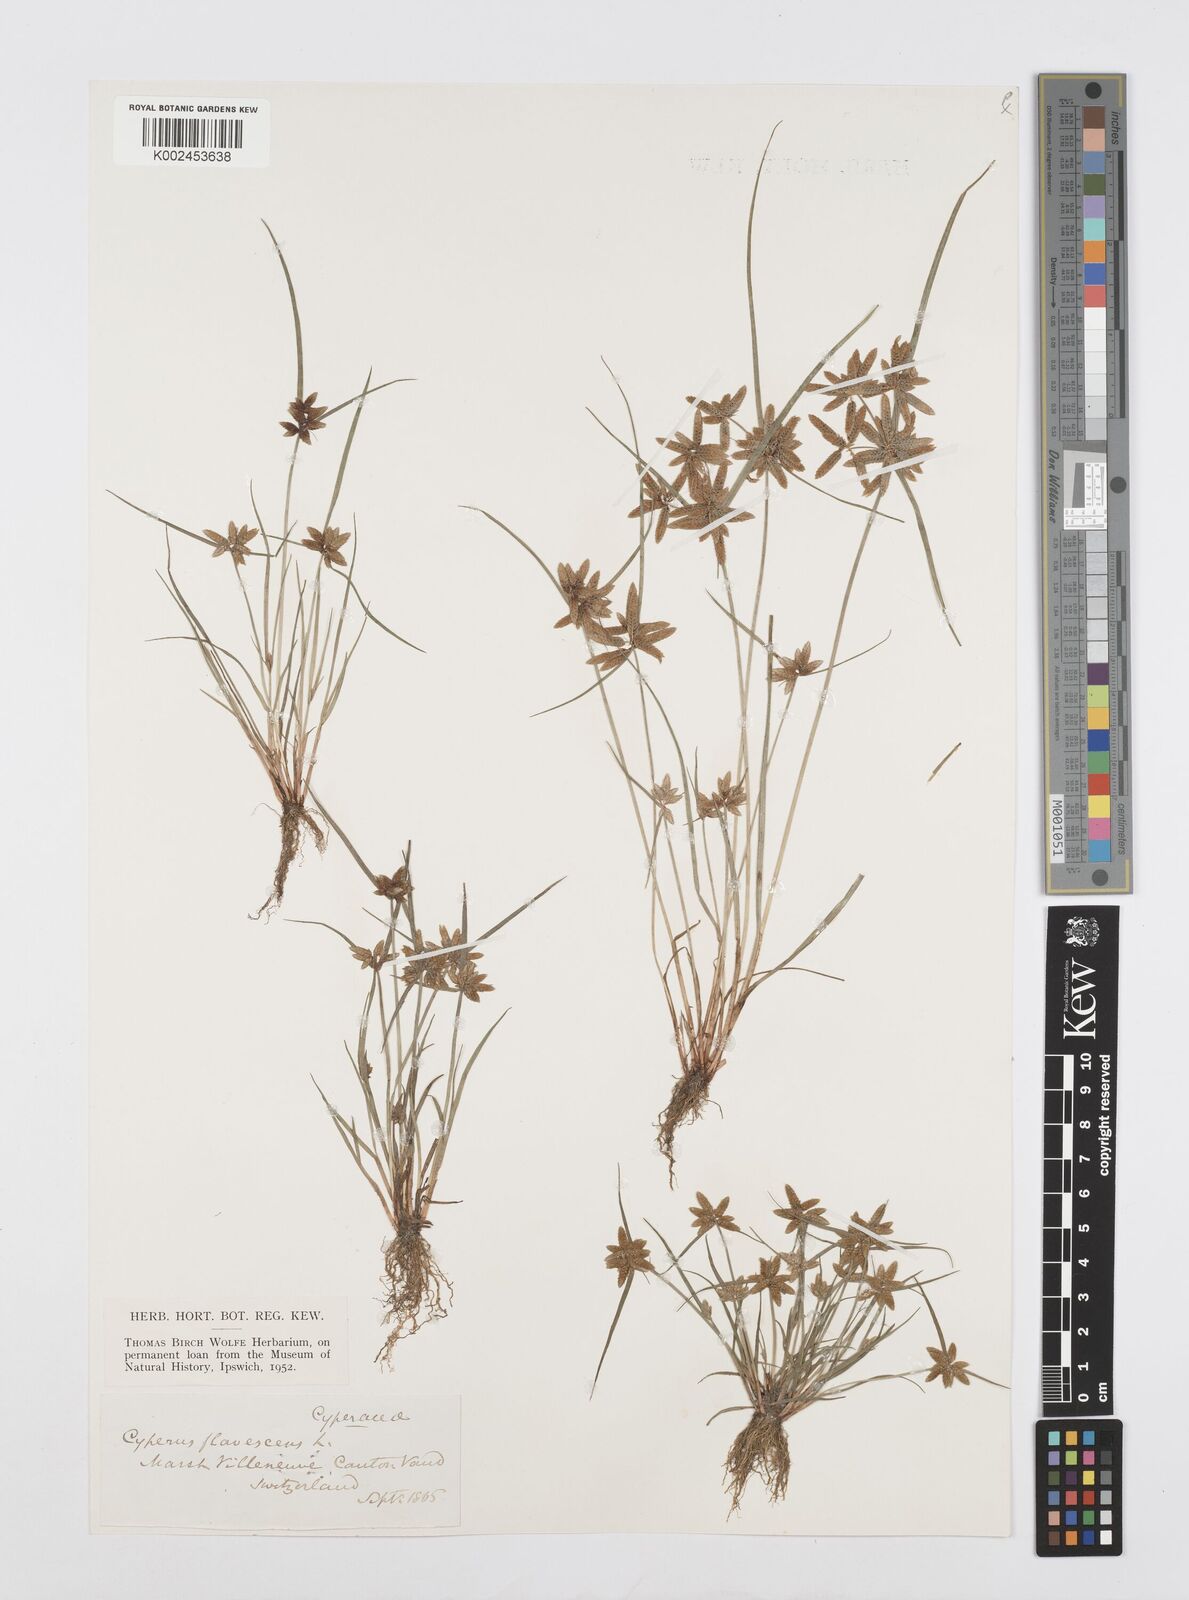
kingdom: Plantae
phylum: Tracheophyta
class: Liliopsida
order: Poales
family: Cyperaceae
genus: Cyperus
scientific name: Cyperus flavescens
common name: Yellow galingale
